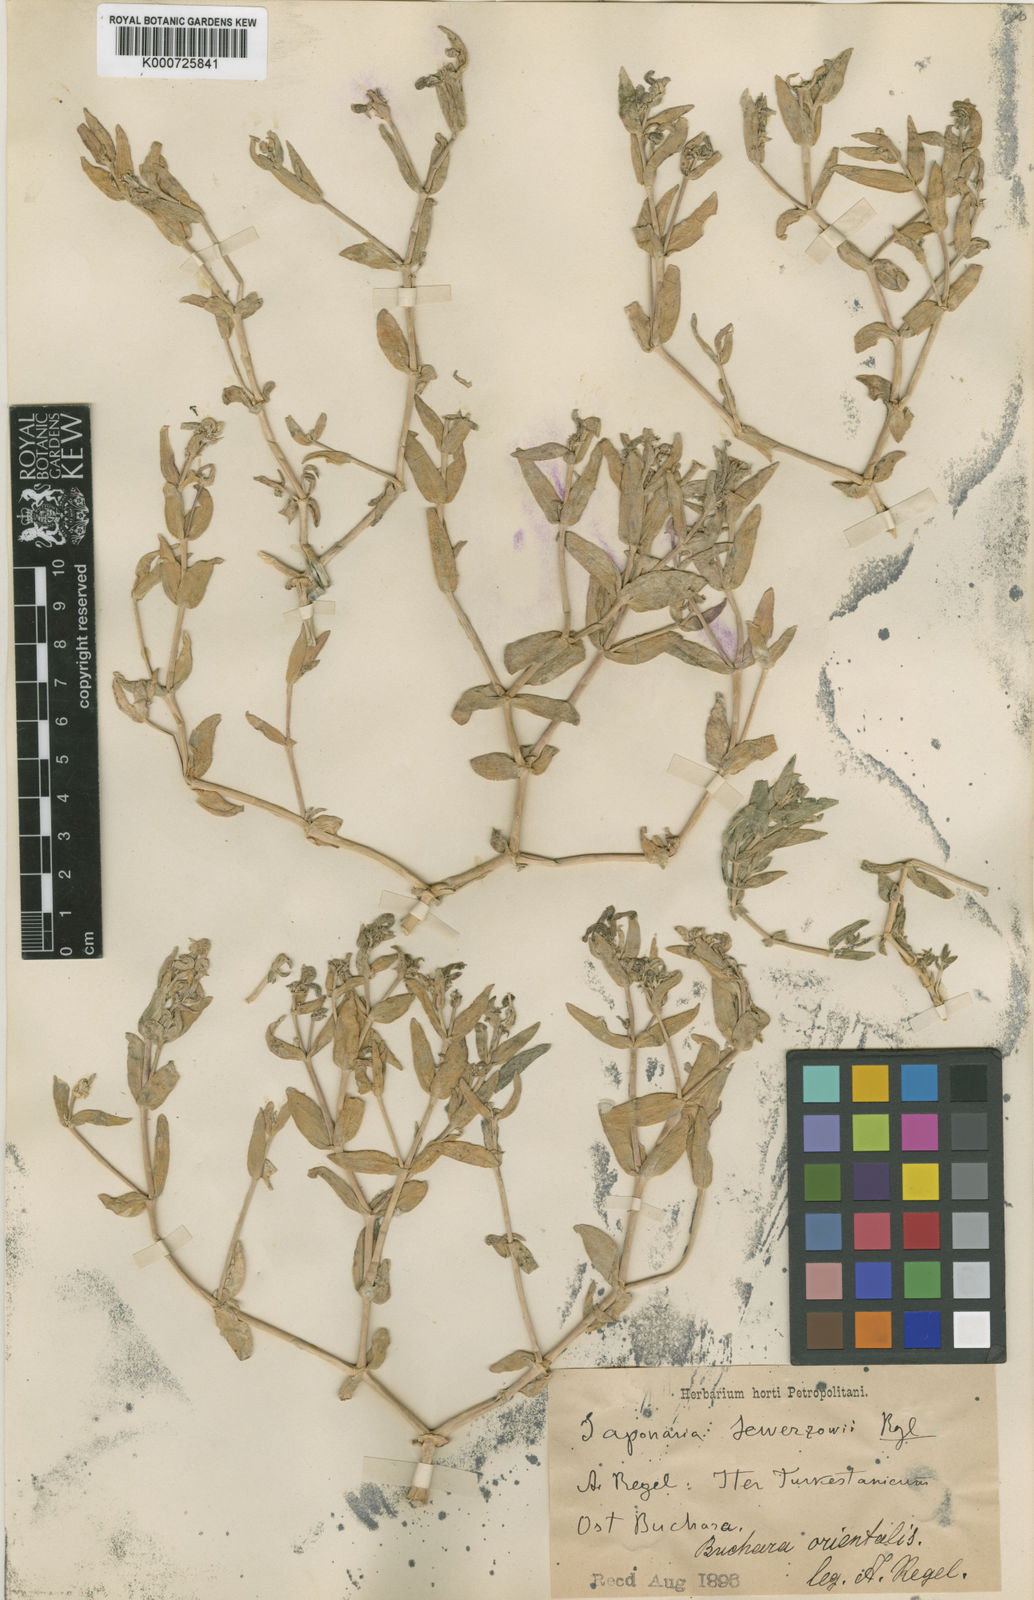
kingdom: Plantae
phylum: Tracheophyta
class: Magnoliopsida
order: Caryophyllales
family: Caryophyllaceae
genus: Gypsophila
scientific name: Gypsophila sewerzowii
